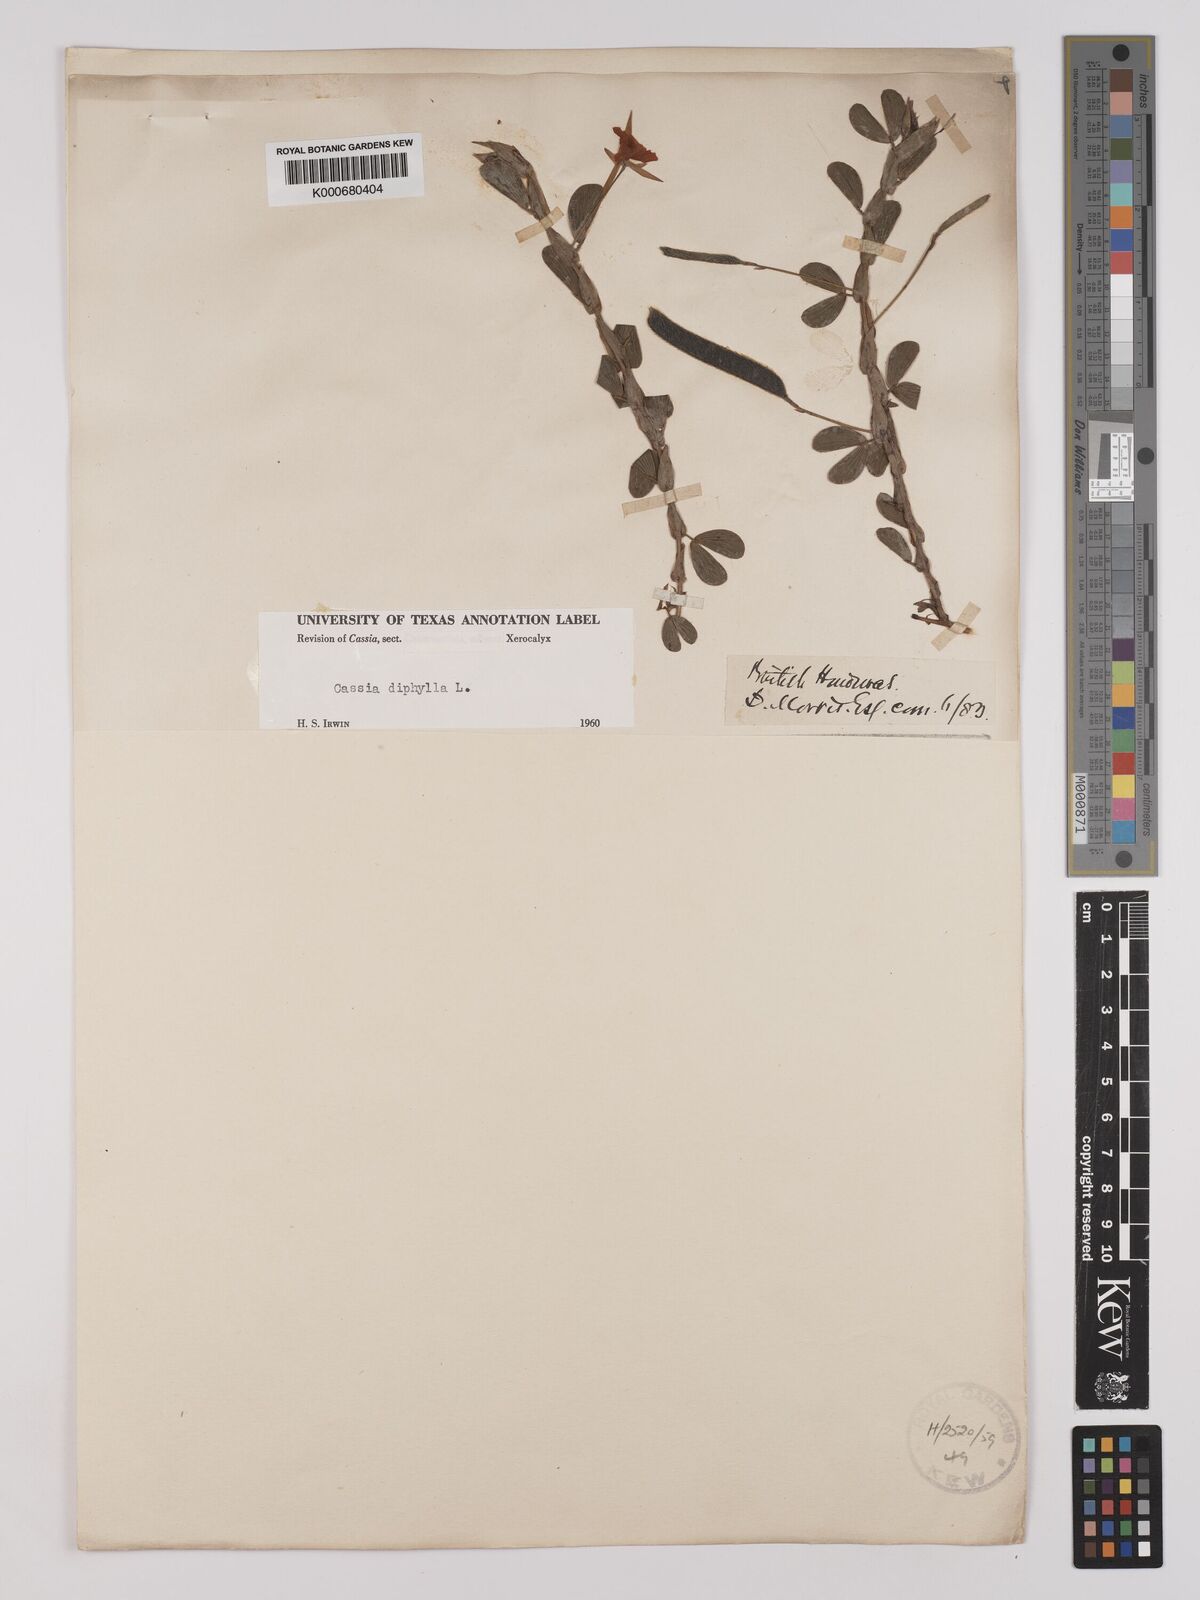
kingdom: Plantae
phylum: Tracheophyta
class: Magnoliopsida
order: Fabales
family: Fabaceae
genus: Chamaecrista
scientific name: Chamaecrista diphylla
